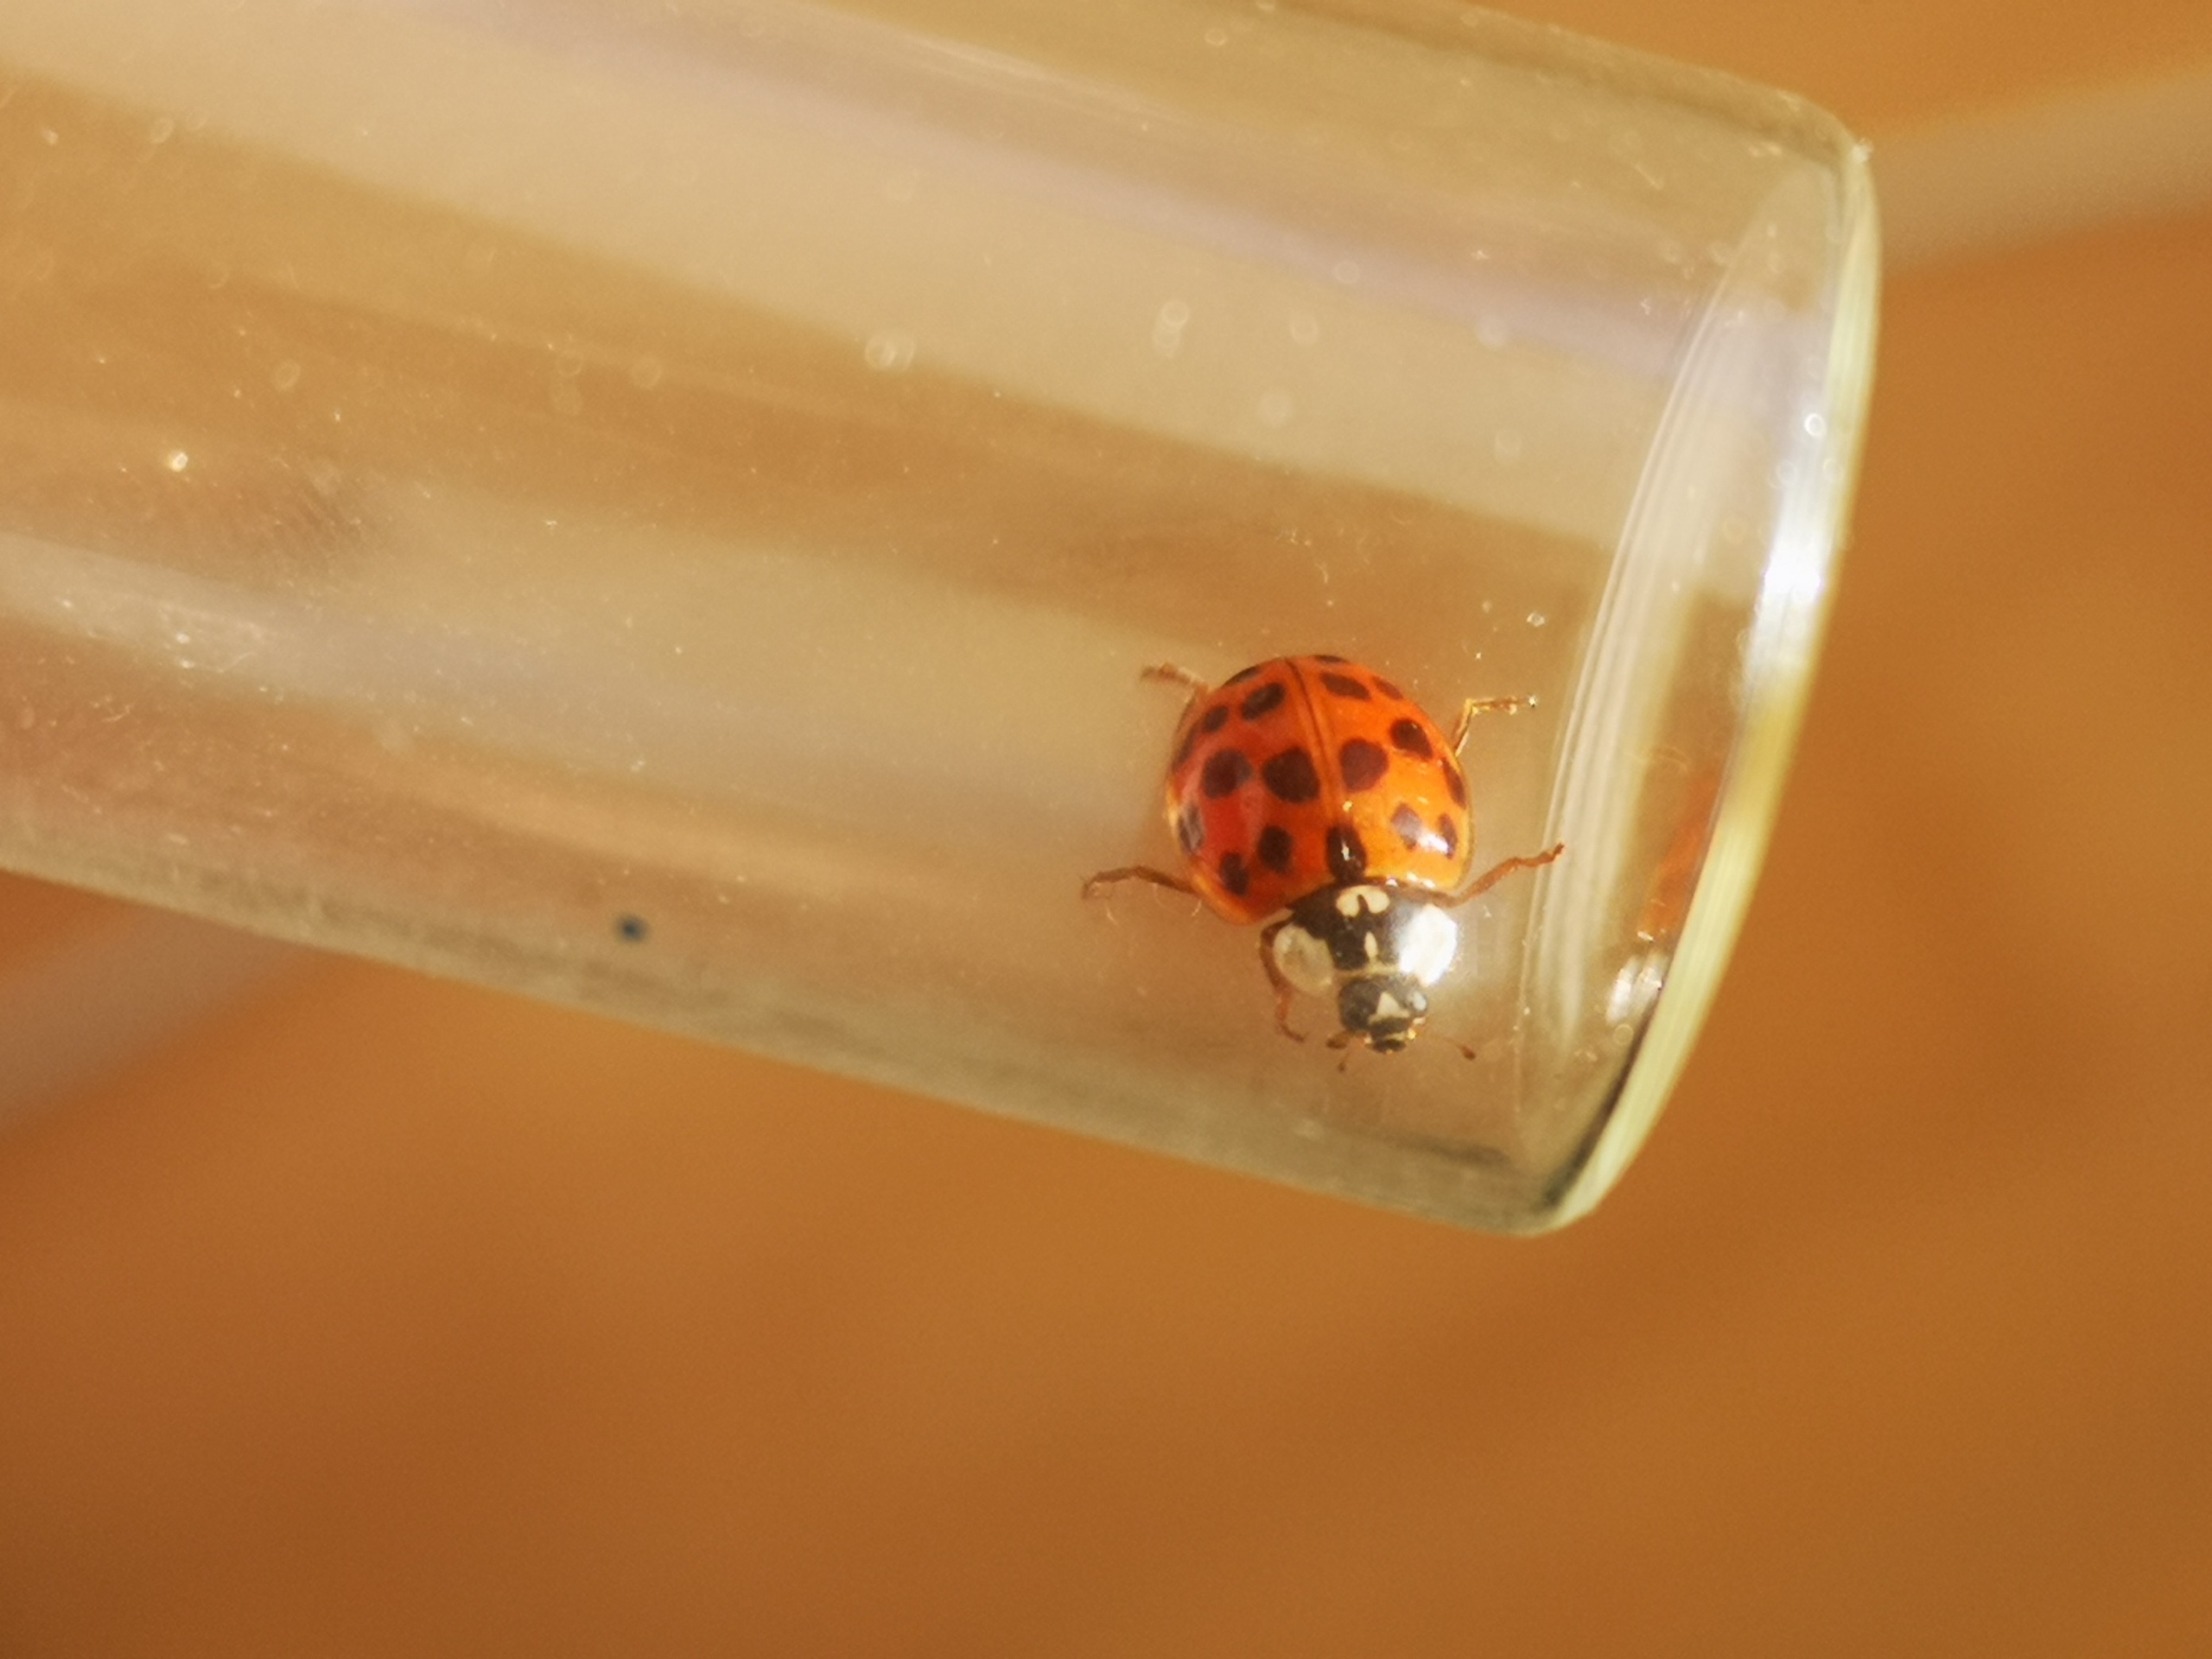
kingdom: Animalia
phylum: Arthropoda
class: Insecta
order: Coleoptera
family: Coccinellidae
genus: Harmonia
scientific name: Harmonia axyridis
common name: Harlekinmariehøne
